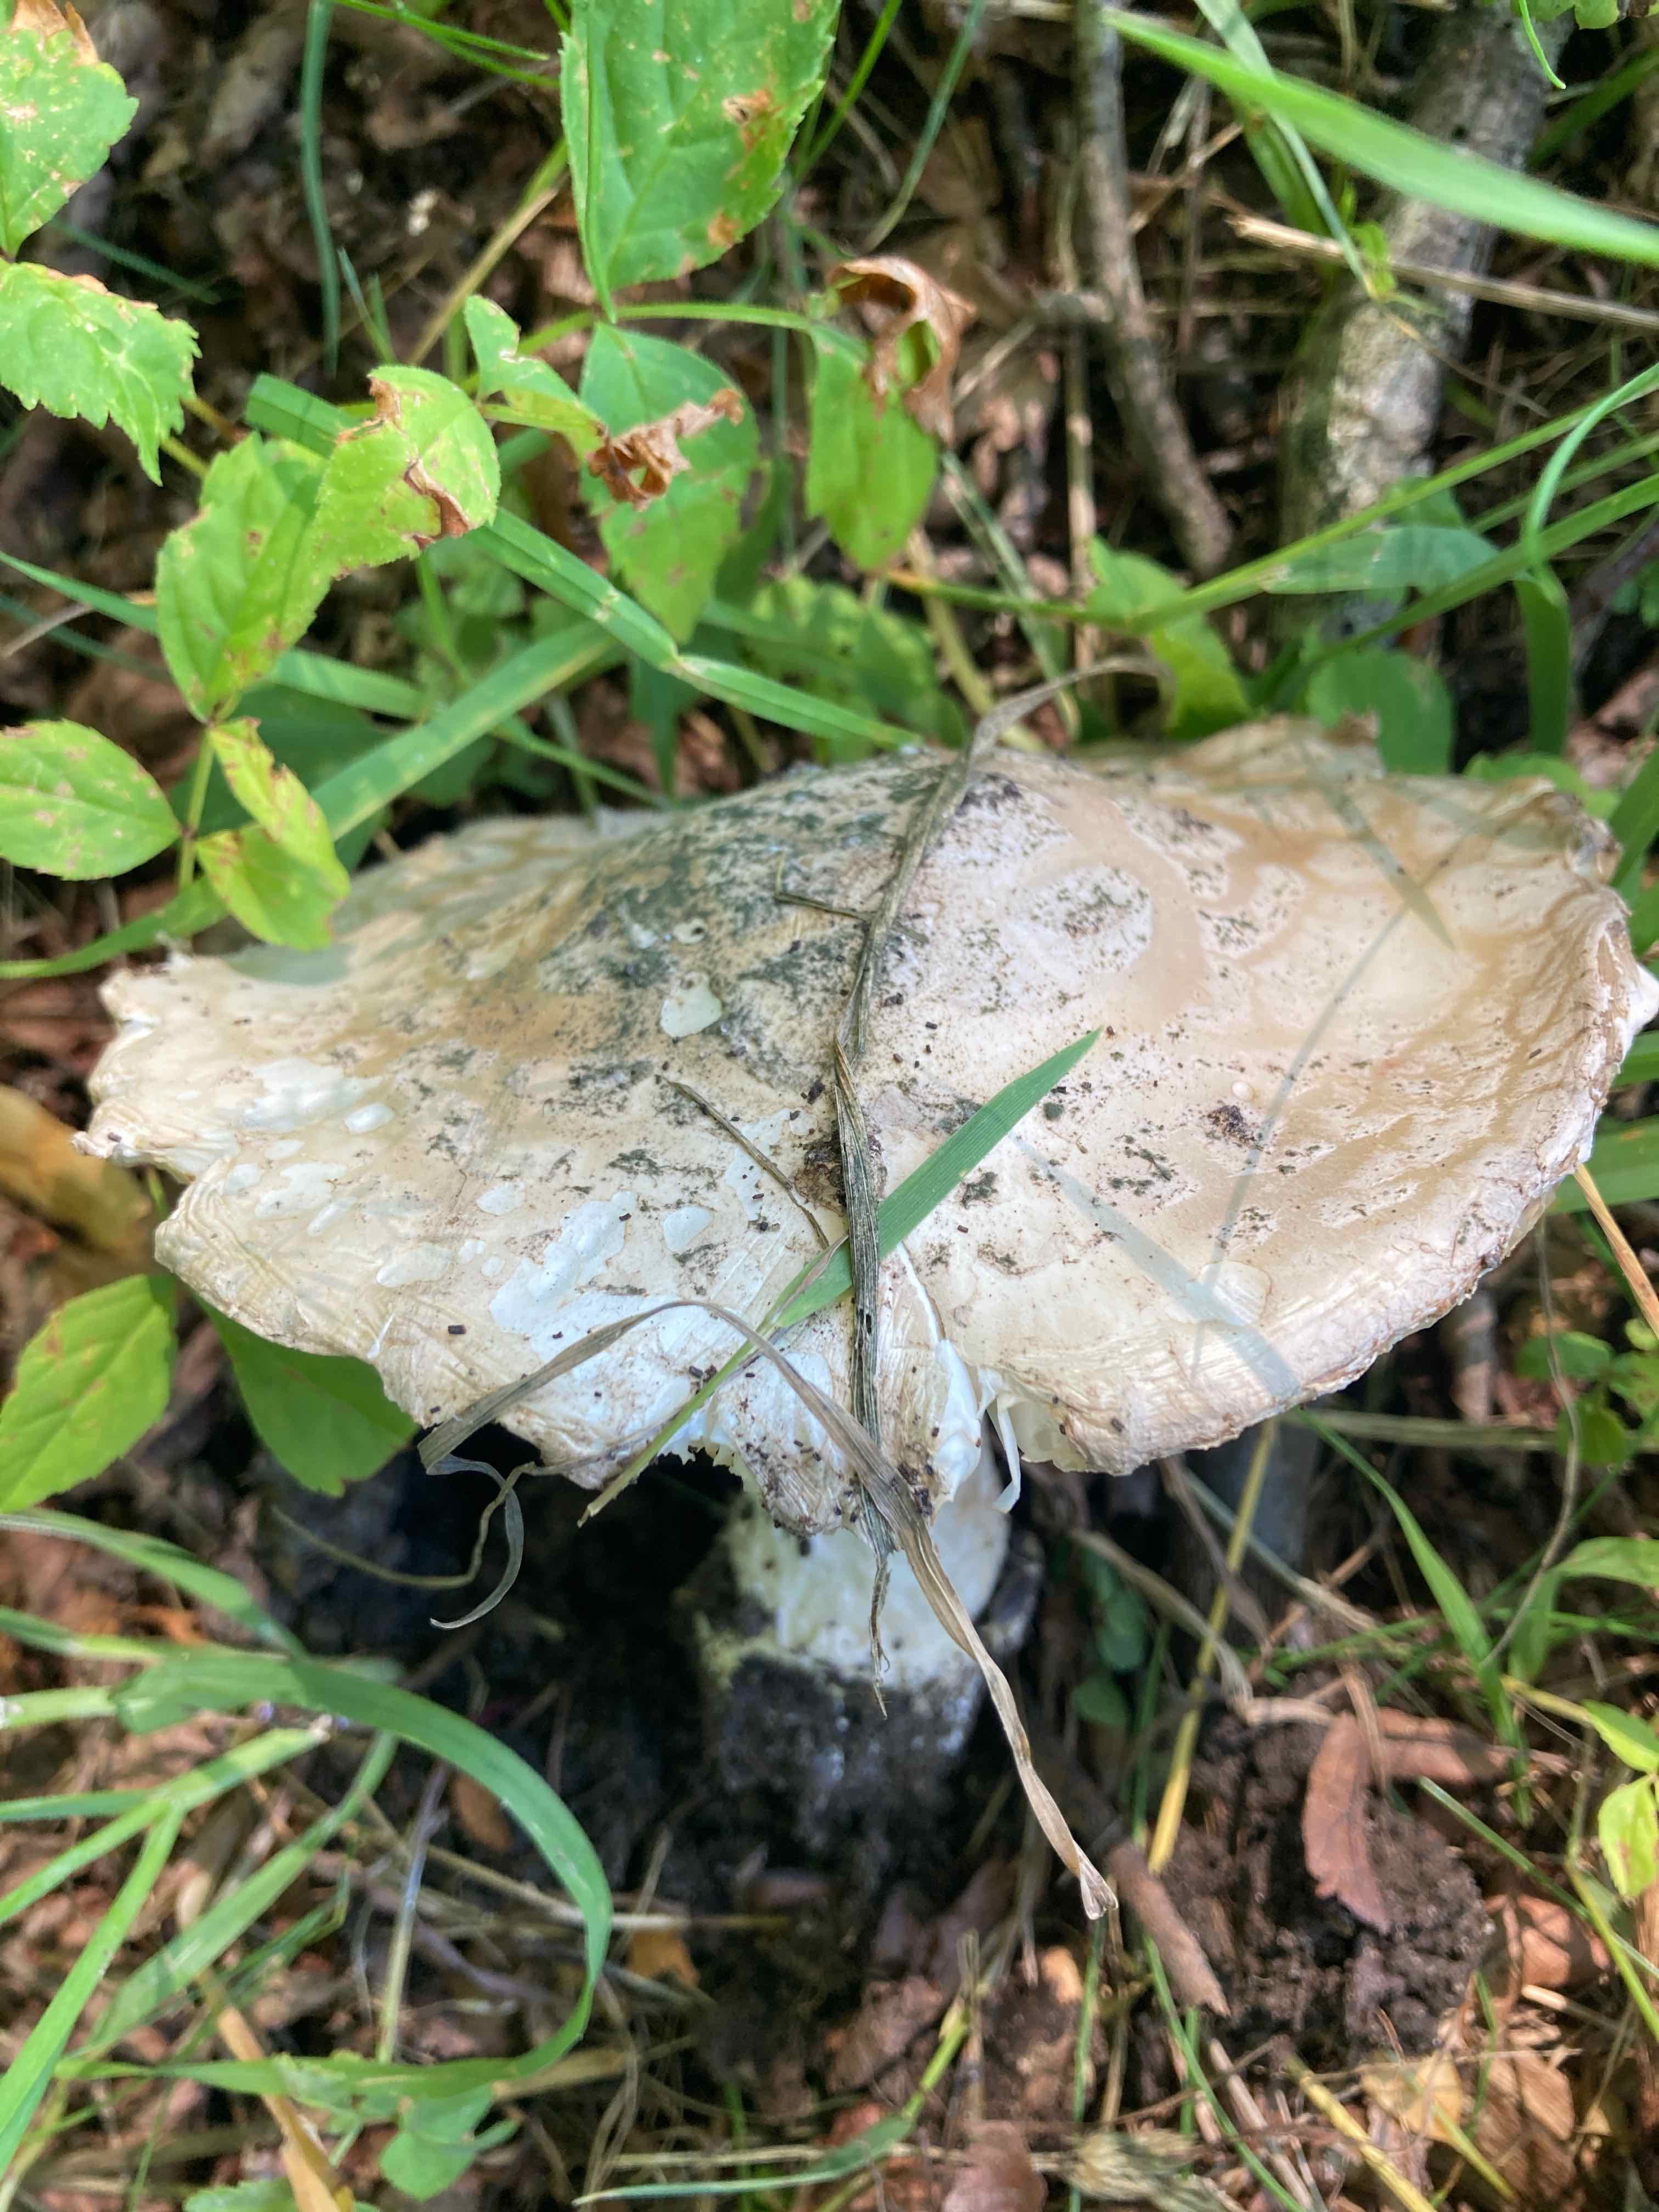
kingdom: Fungi
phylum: Basidiomycota
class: Agaricomycetes
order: Agaricales
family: Amanitaceae
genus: Amanita
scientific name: Amanita
